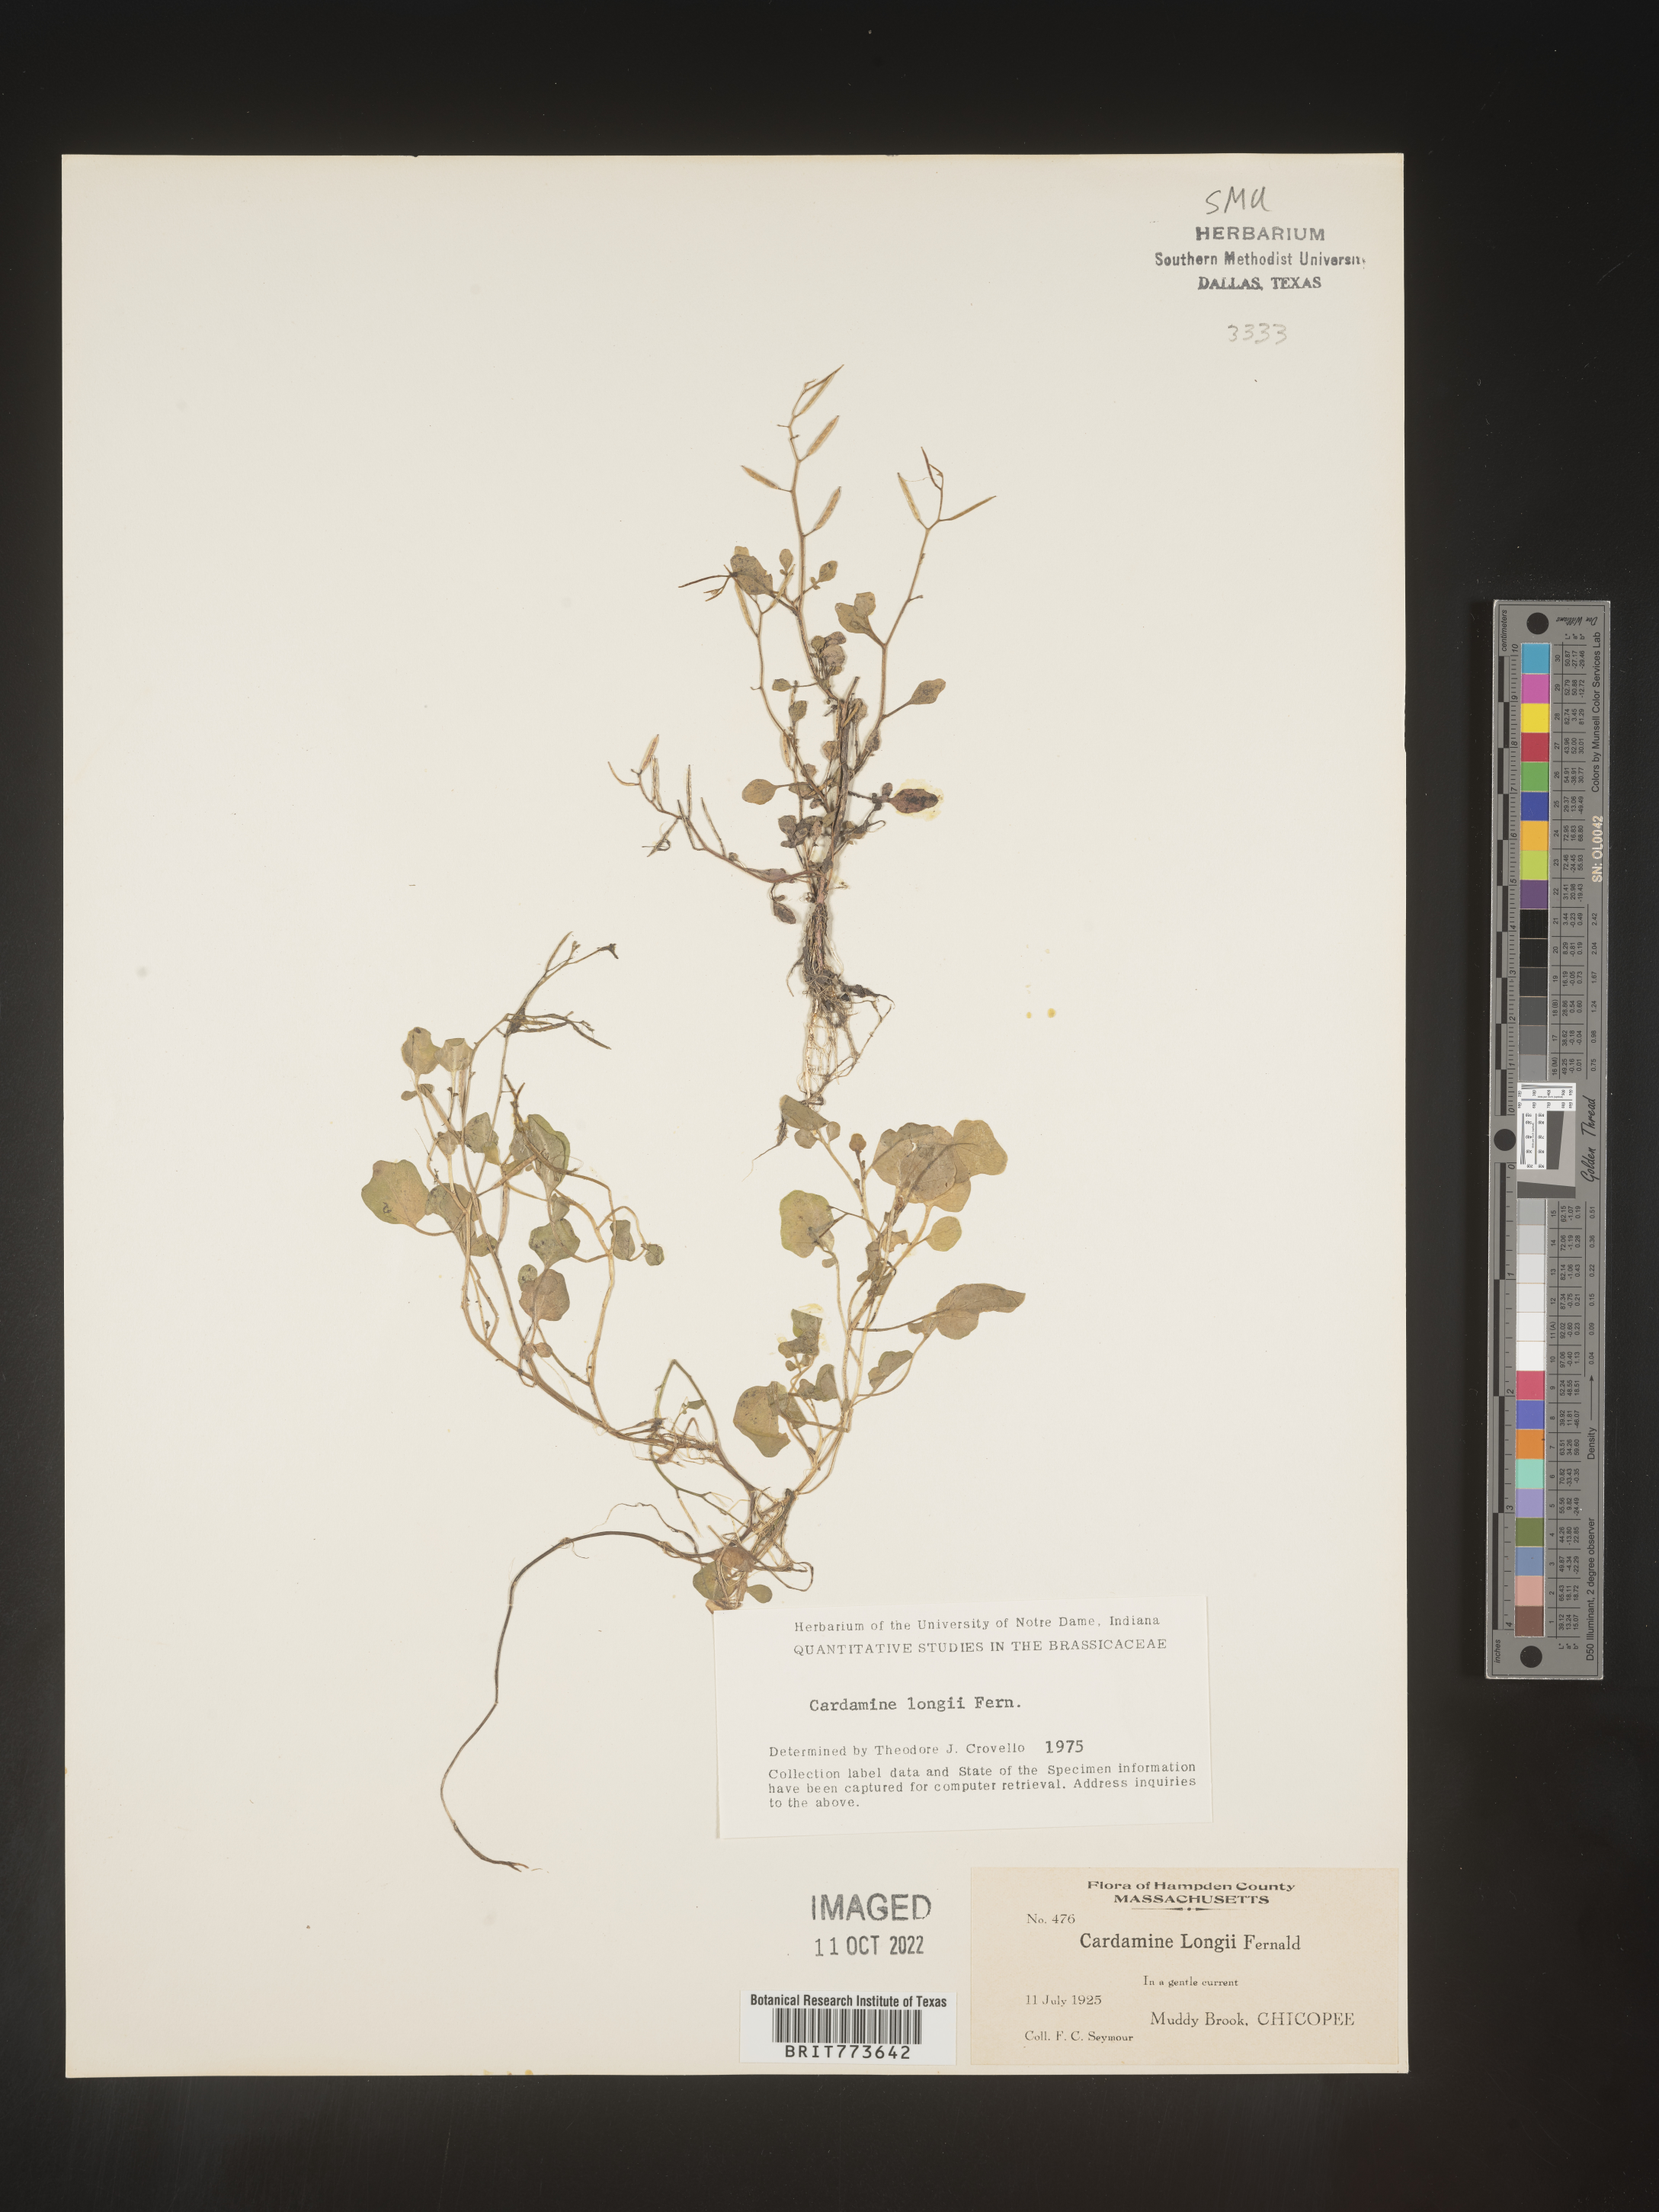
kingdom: Plantae
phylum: Tracheophyta
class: Magnoliopsida
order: Brassicales
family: Brassicaceae
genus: Cardamine
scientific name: Cardamine
